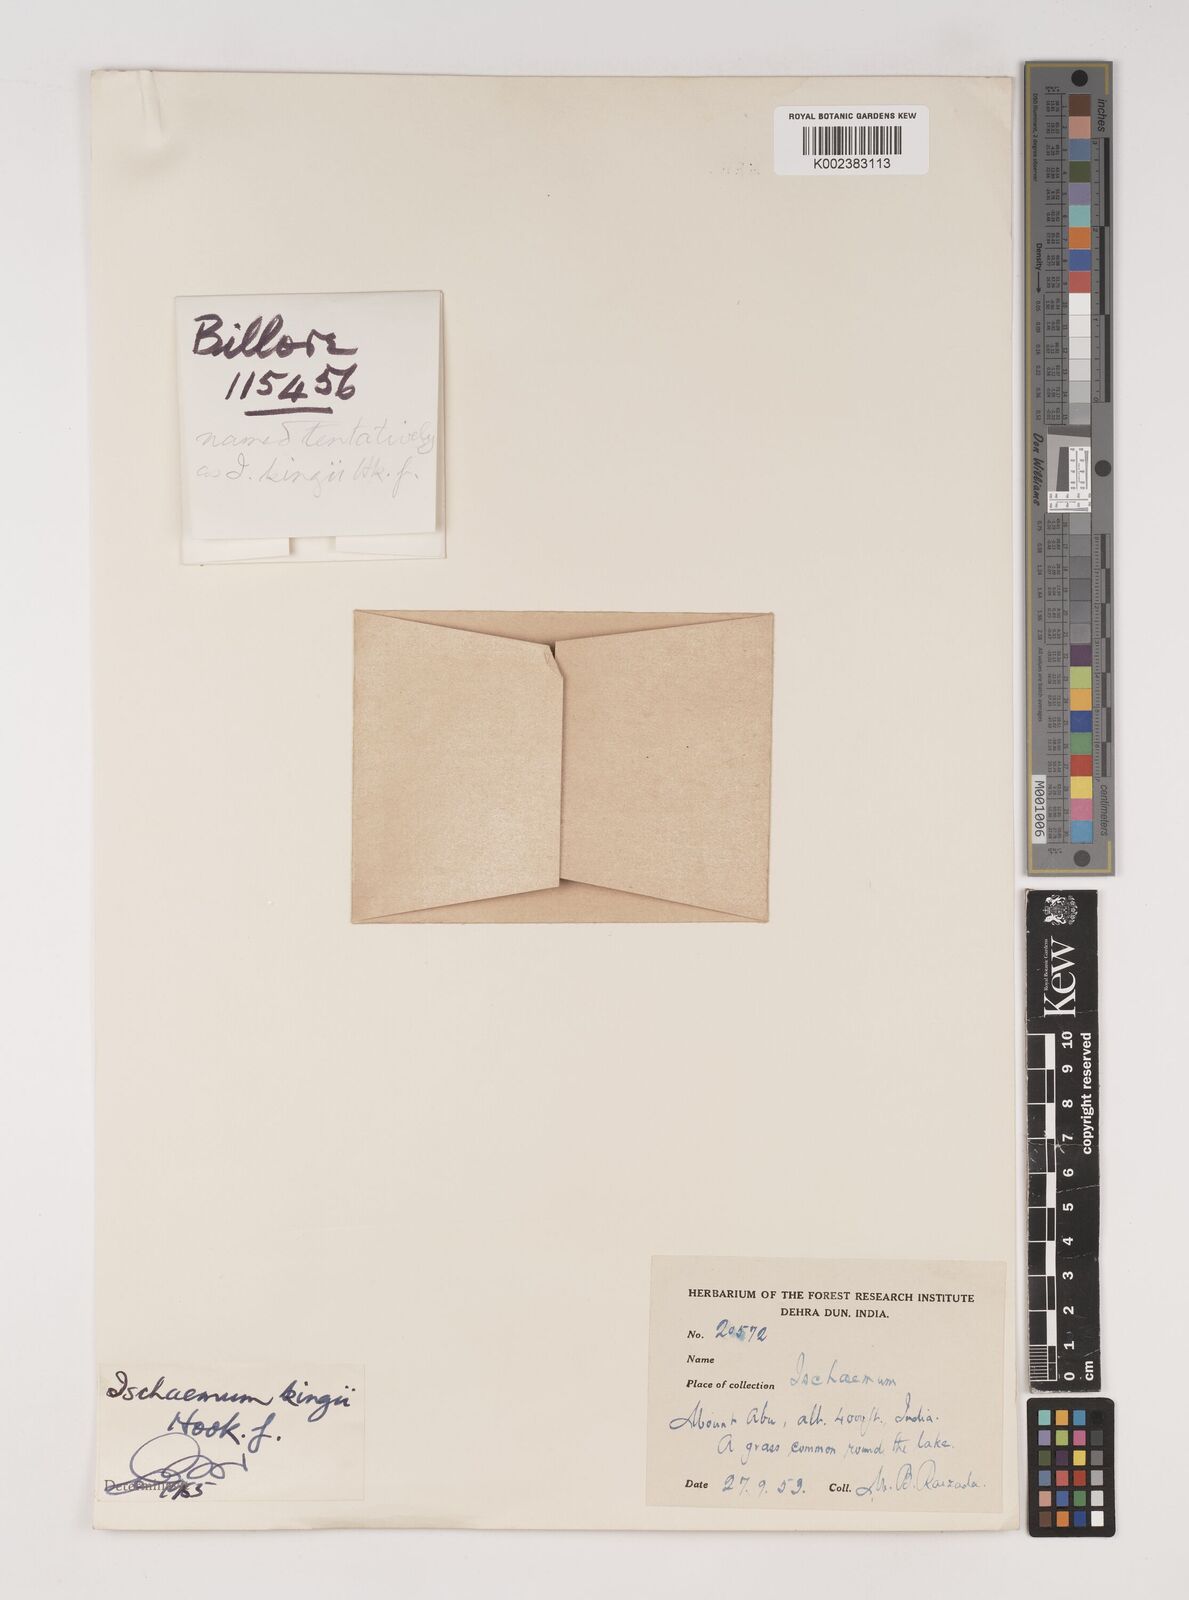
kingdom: Plantae
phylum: Tracheophyta
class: Liliopsida
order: Poales
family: Poaceae
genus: Ischaemum
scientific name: Ischaemum kingii
